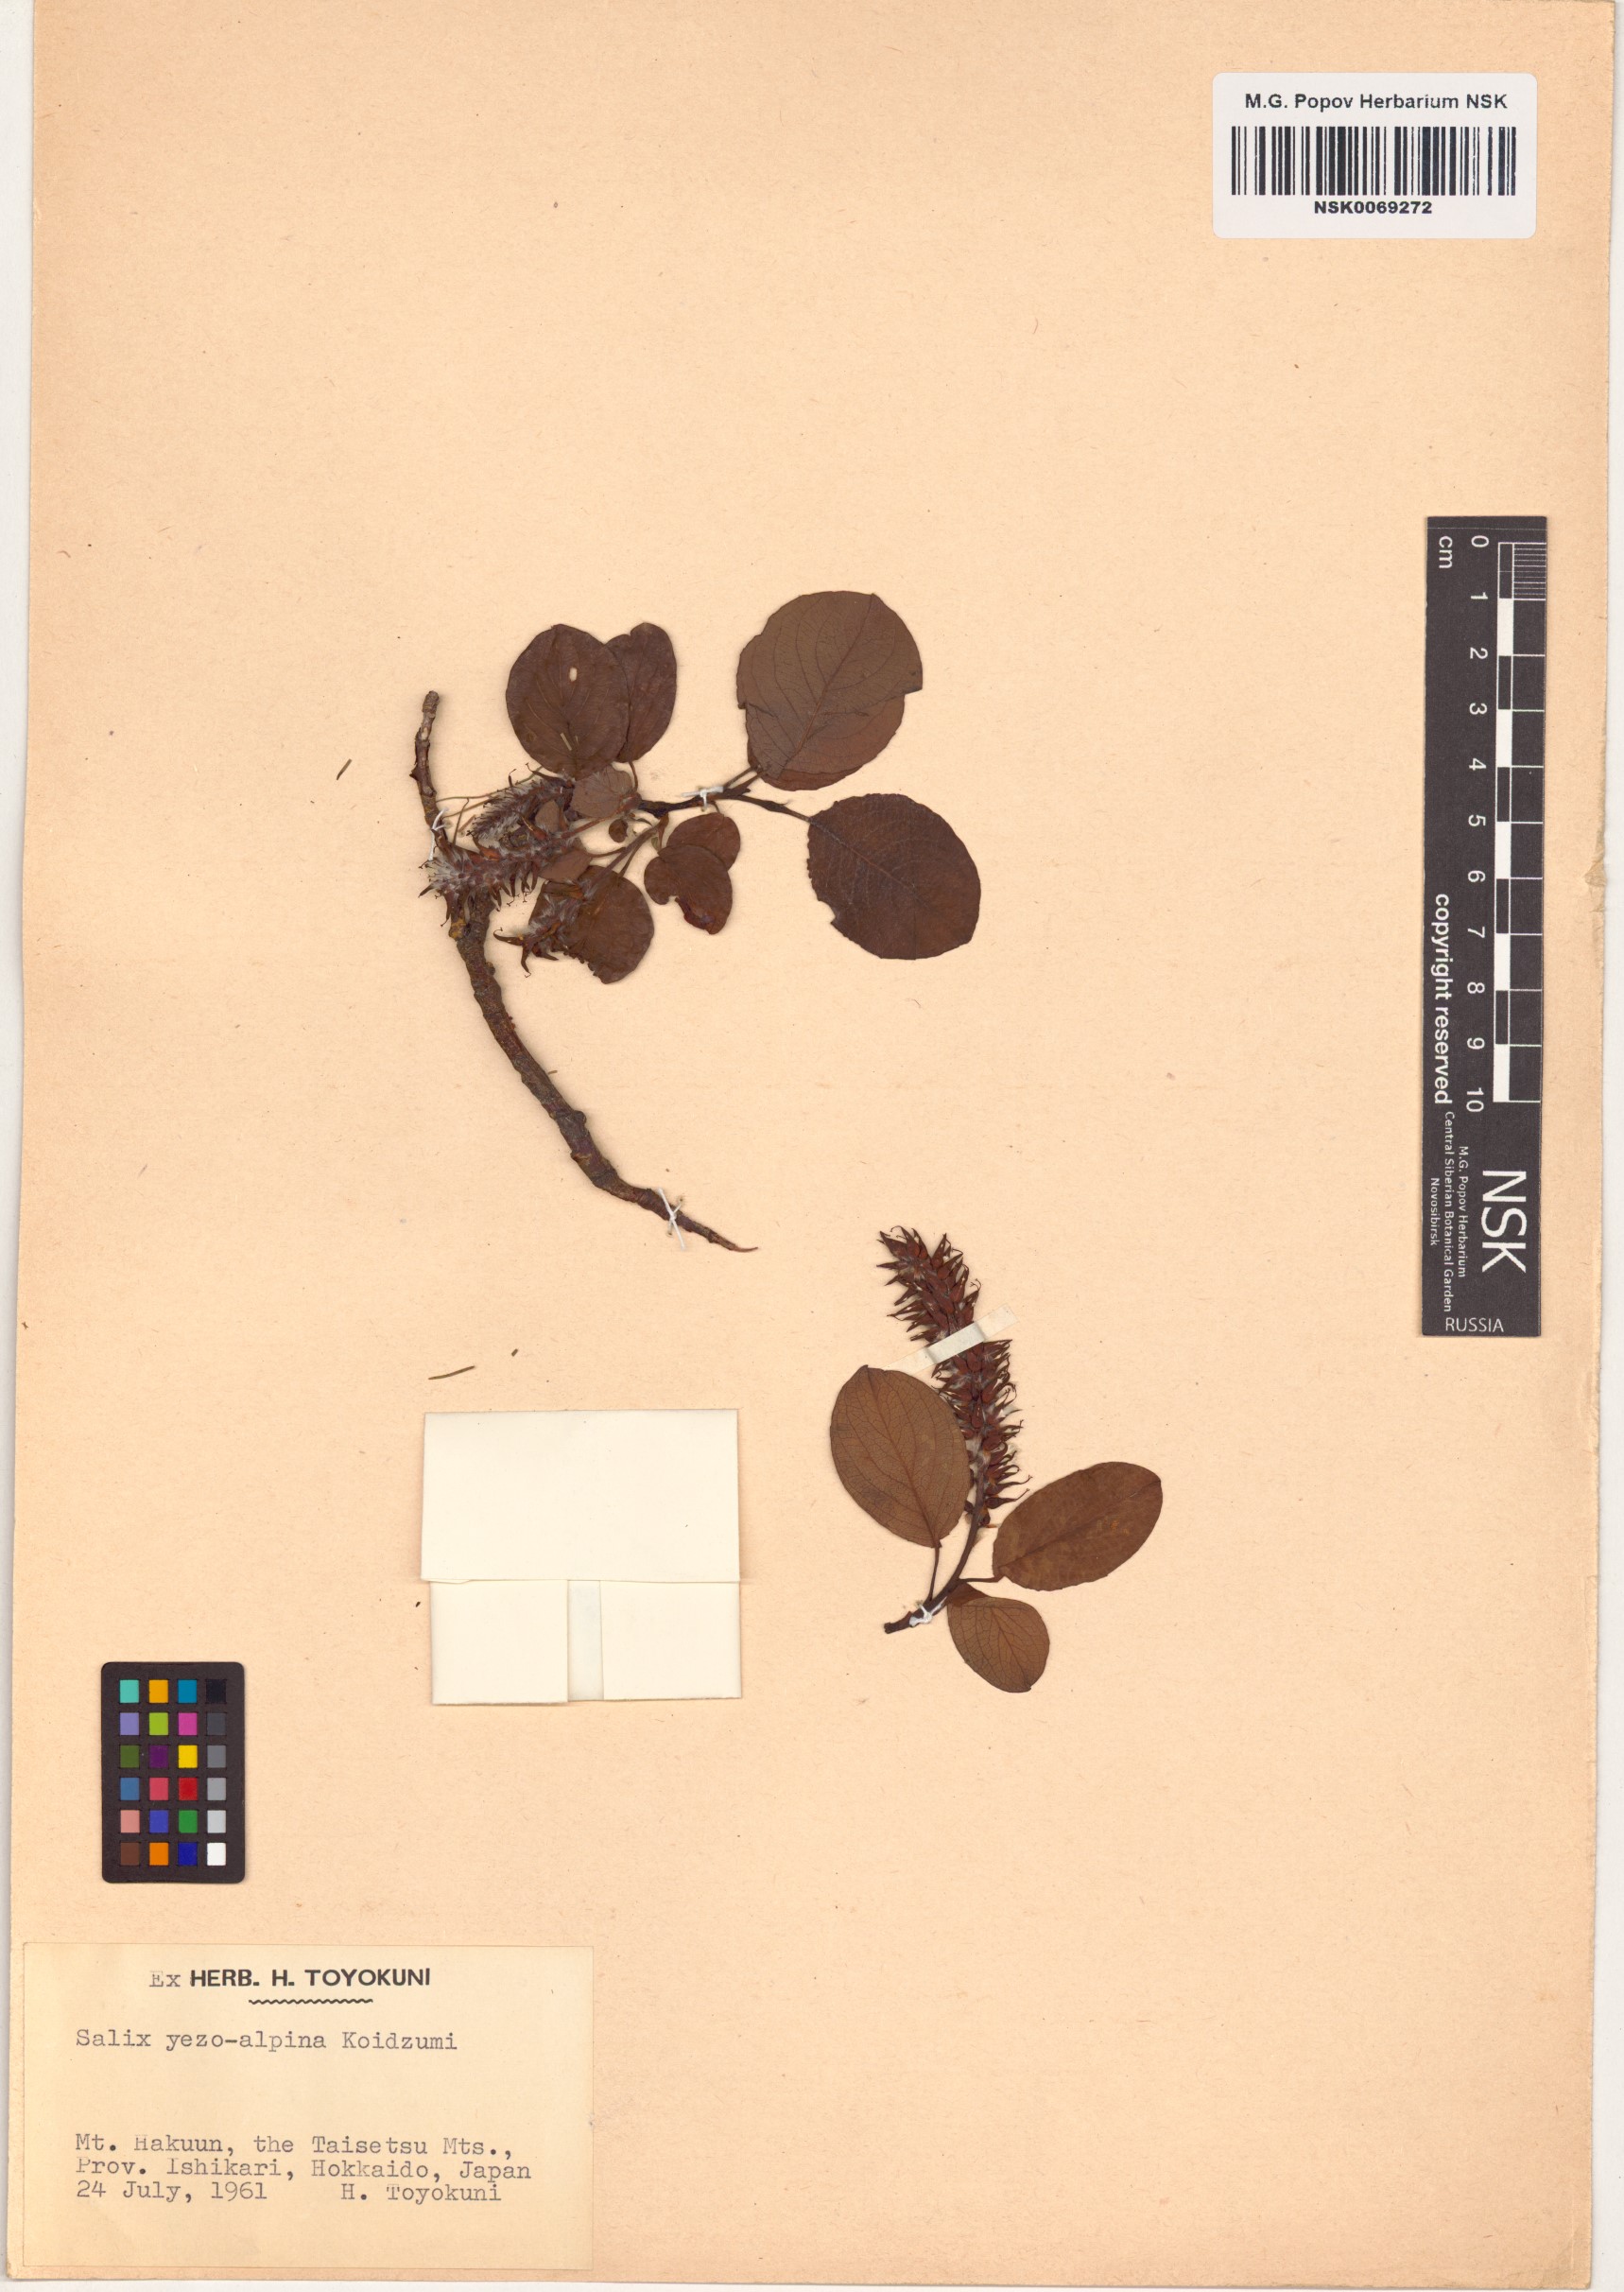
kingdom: Plantae
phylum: Tracheophyta
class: Magnoliopsida
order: Malpighiales
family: Salicaceae
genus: Salix
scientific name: Salix nakamurana
